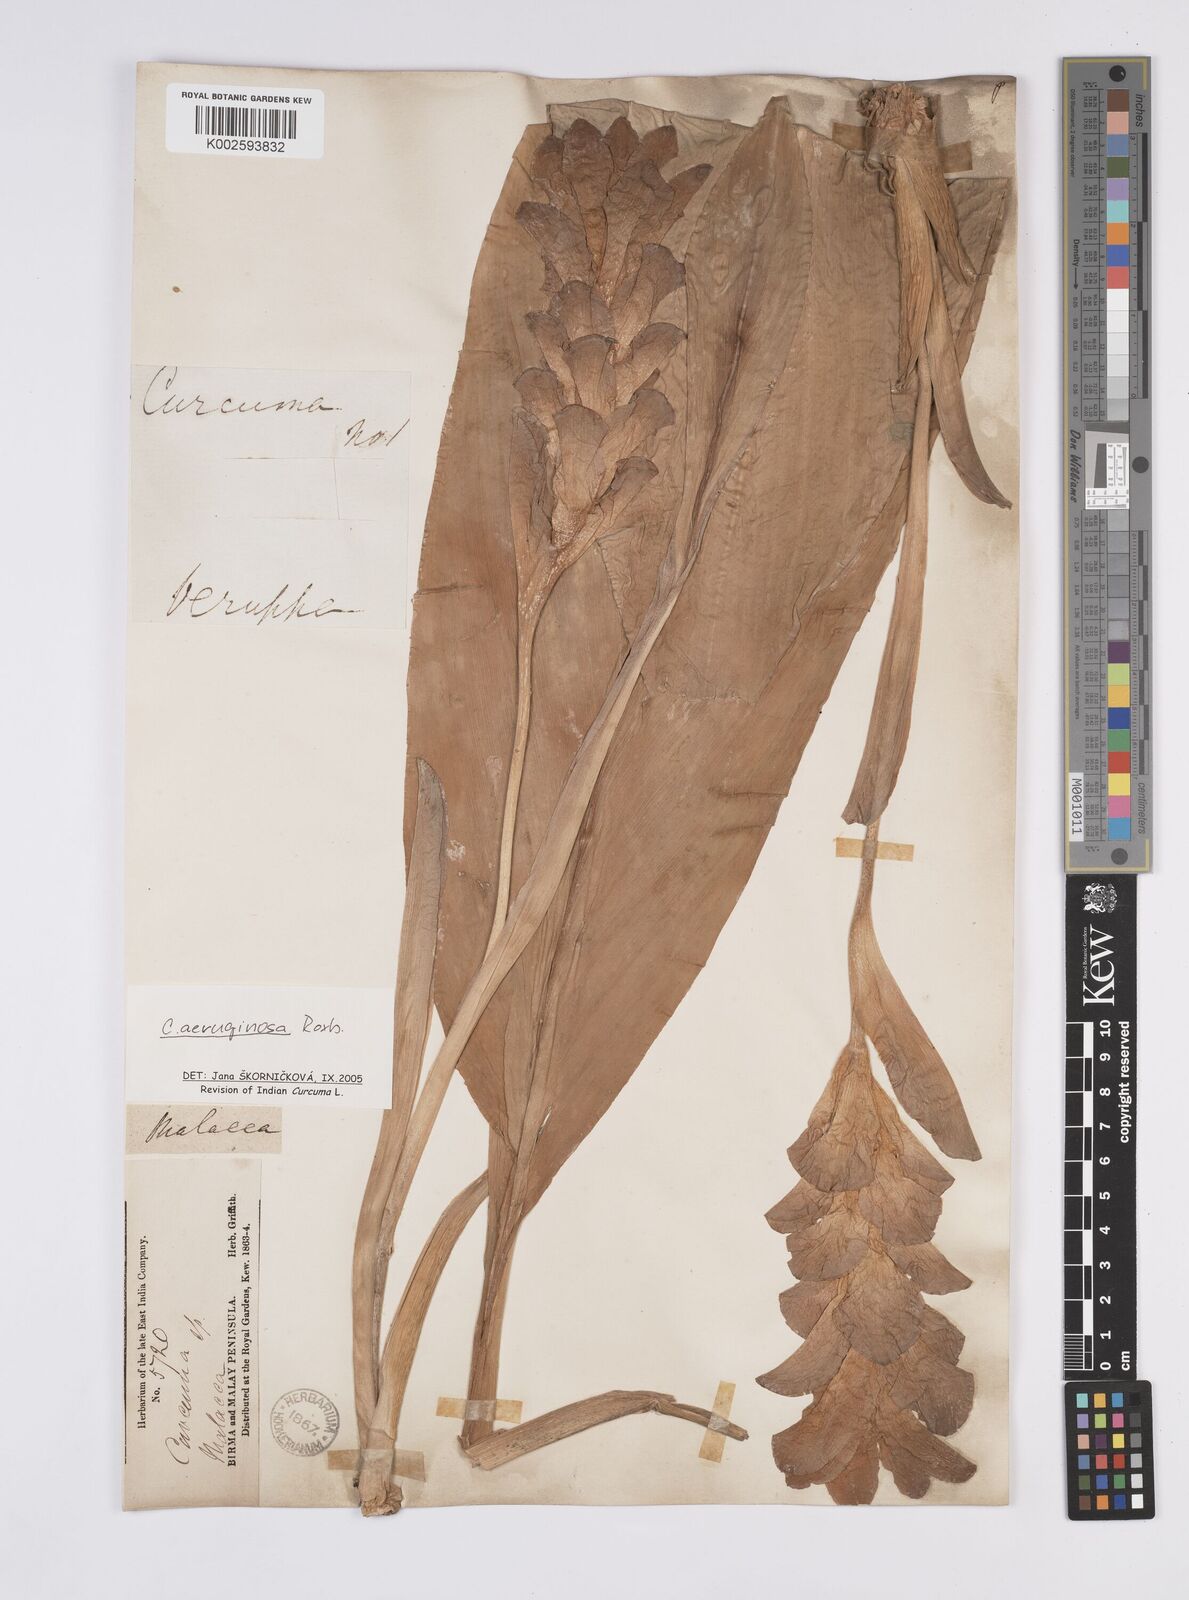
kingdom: Plantae
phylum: Tracheophyta
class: Liliopsida
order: Zingiberales
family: Zingiberaceae
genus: Curcuma
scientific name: Curcuma zanthorrhiza
